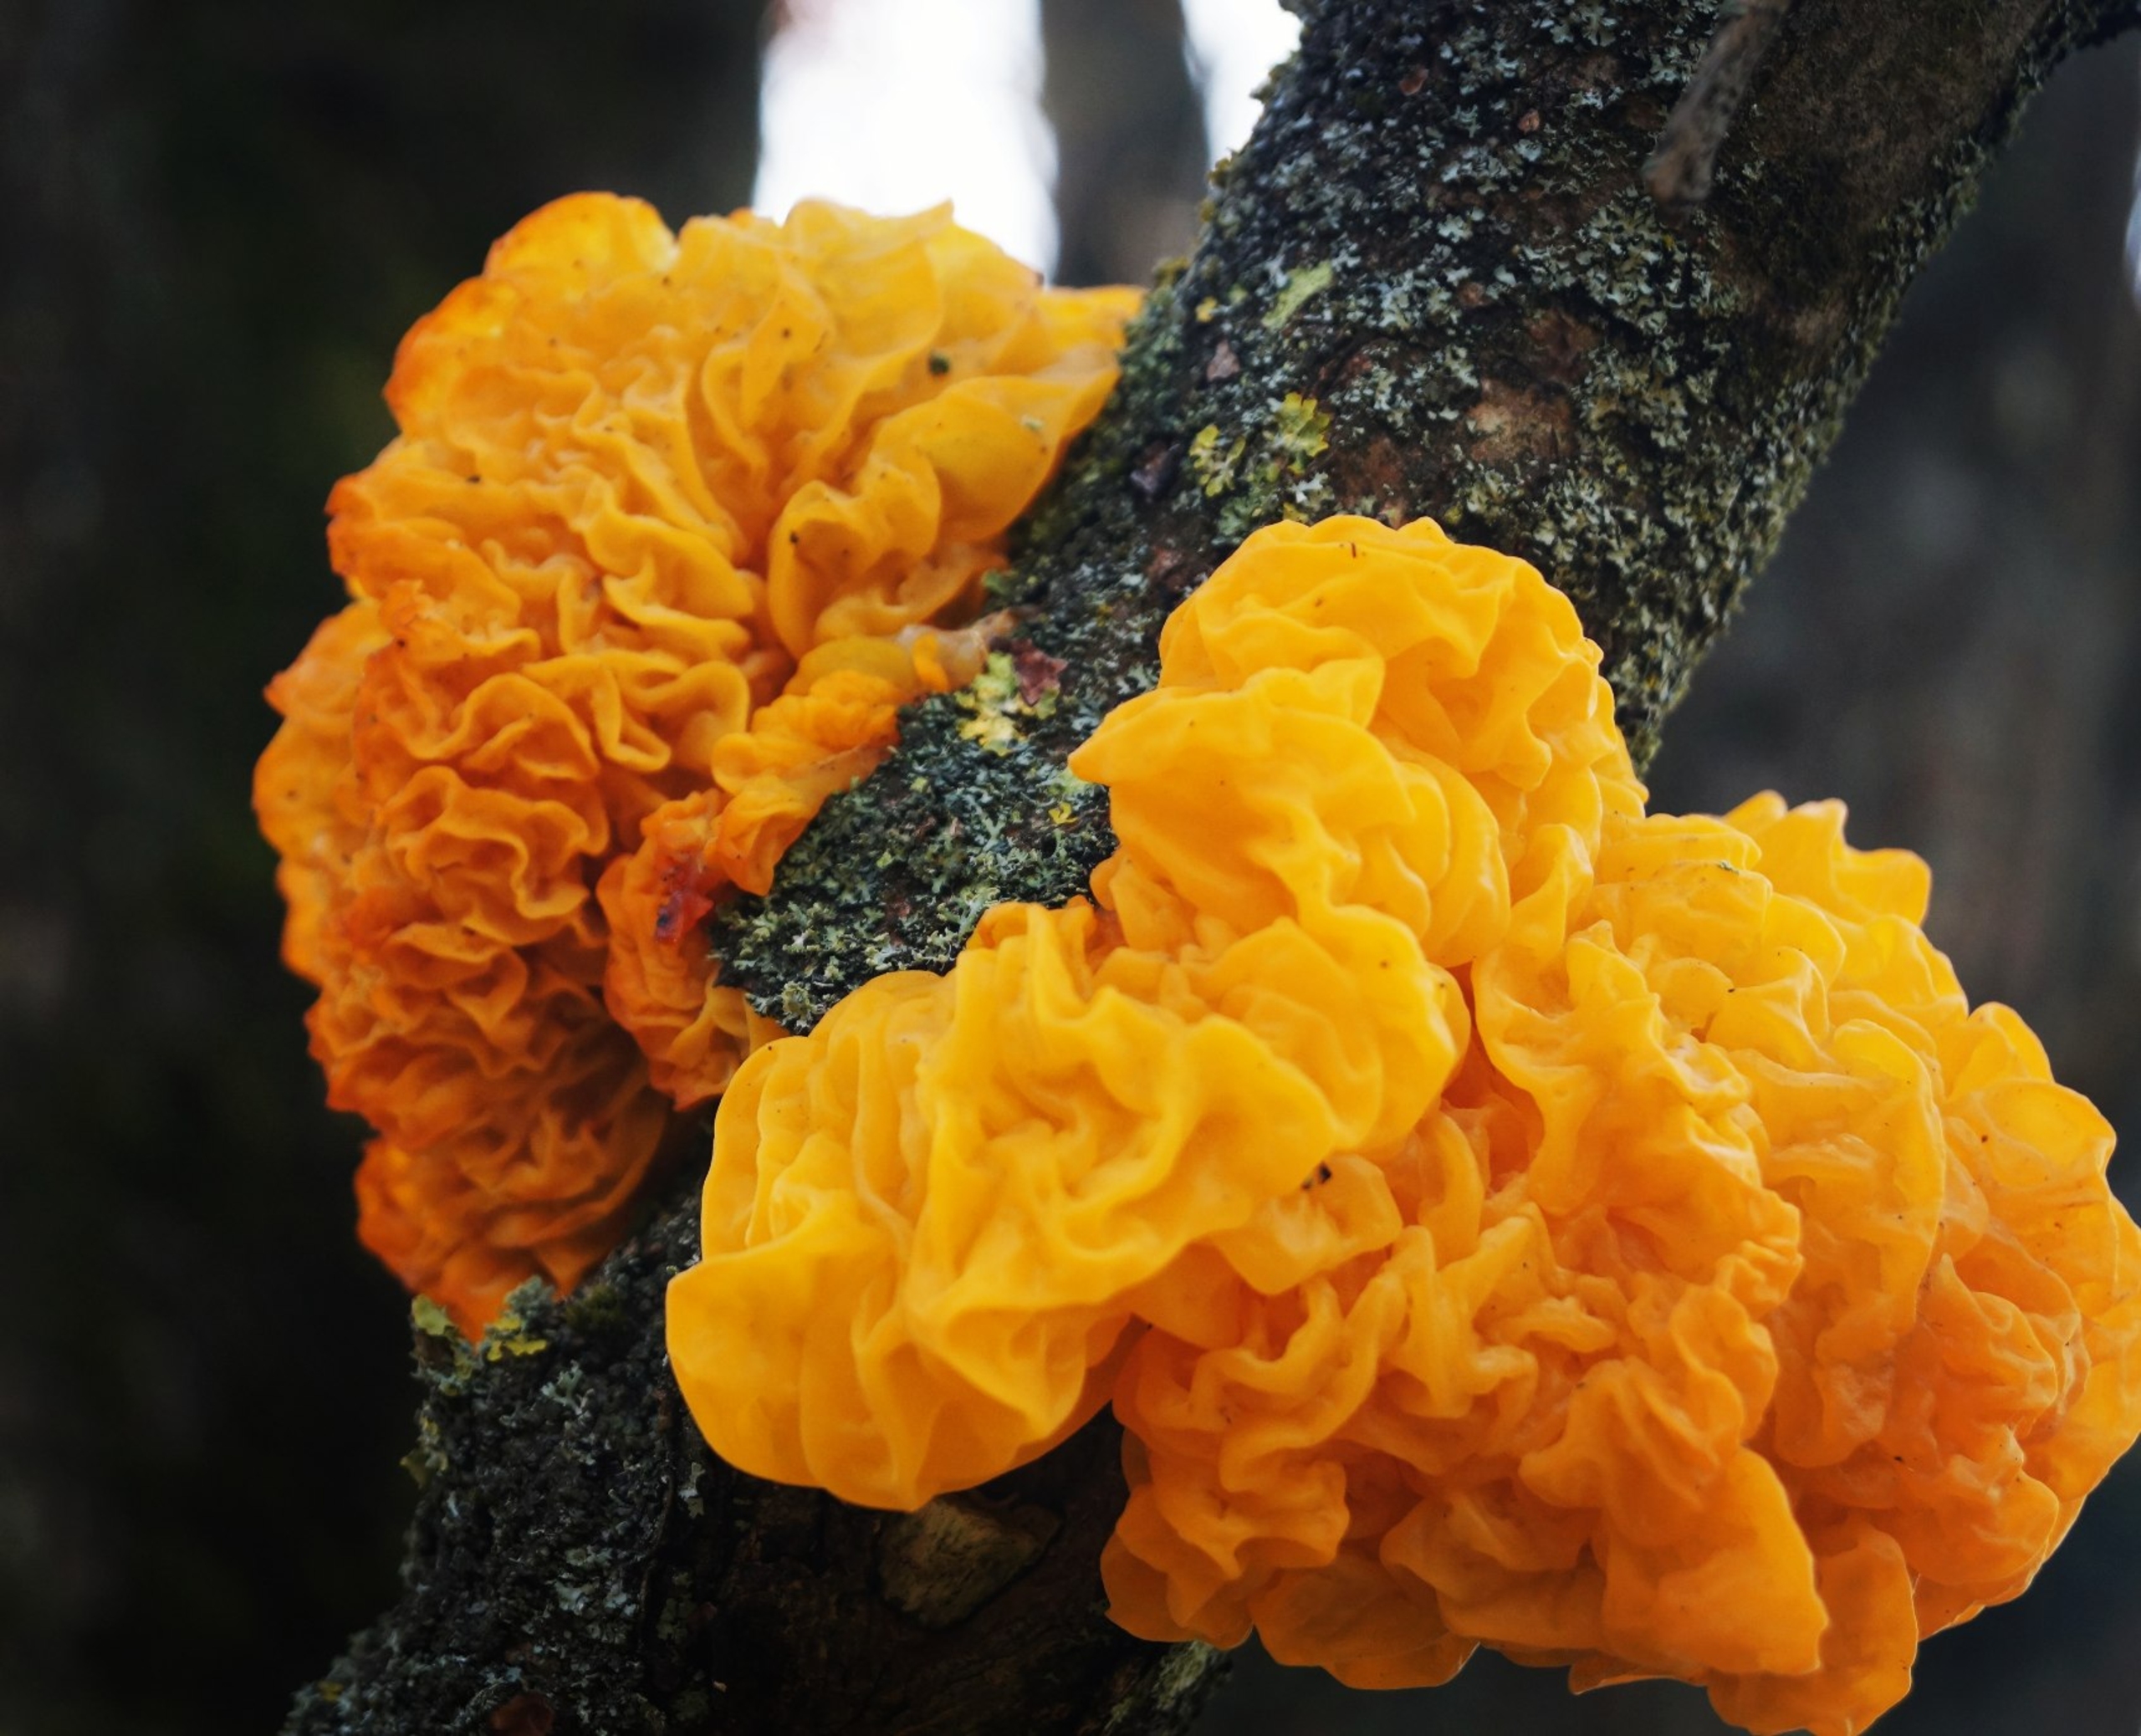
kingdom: Fungi
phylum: Basidiomycota
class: Tremellomycetes
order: Tremellales
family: Tremellaceae
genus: Tremella
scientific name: Tremella mesenterica
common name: Gul bævresvamp
